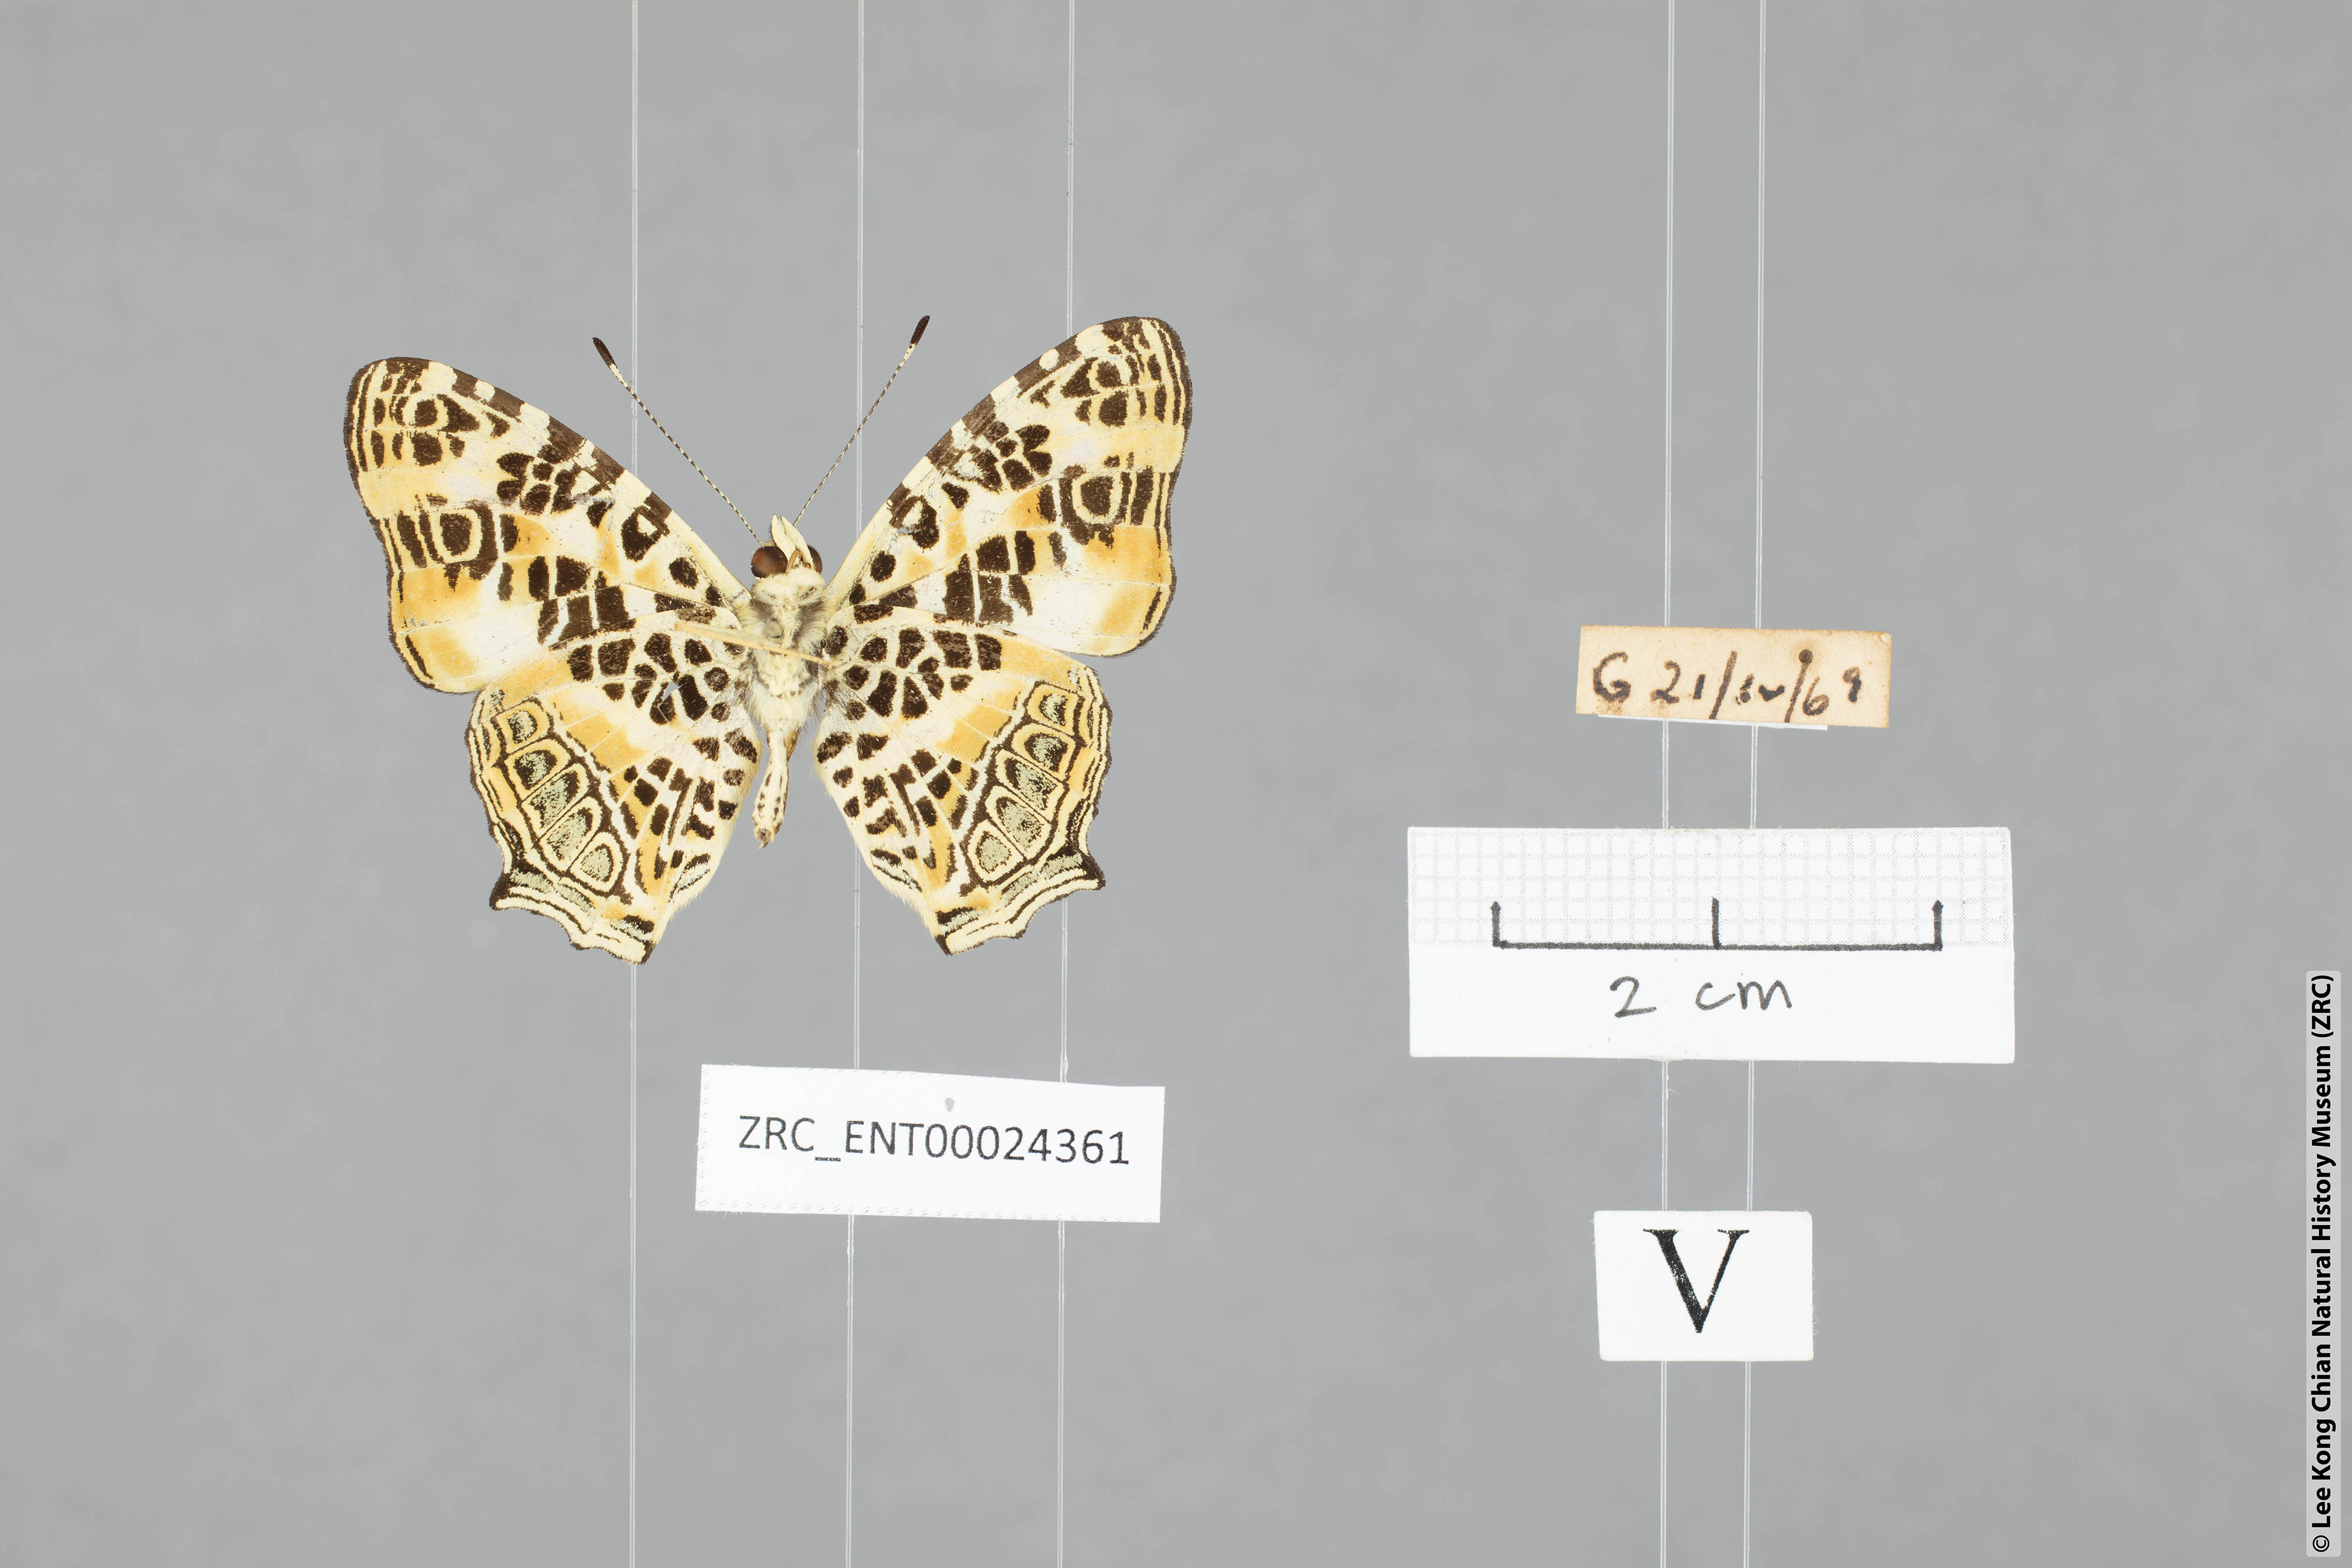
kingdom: Animalia
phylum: Arthropoda
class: Insecta
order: Lepidoptera
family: Nymphalidae
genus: Symbrenthia
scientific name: Symbrenthia hypselis
